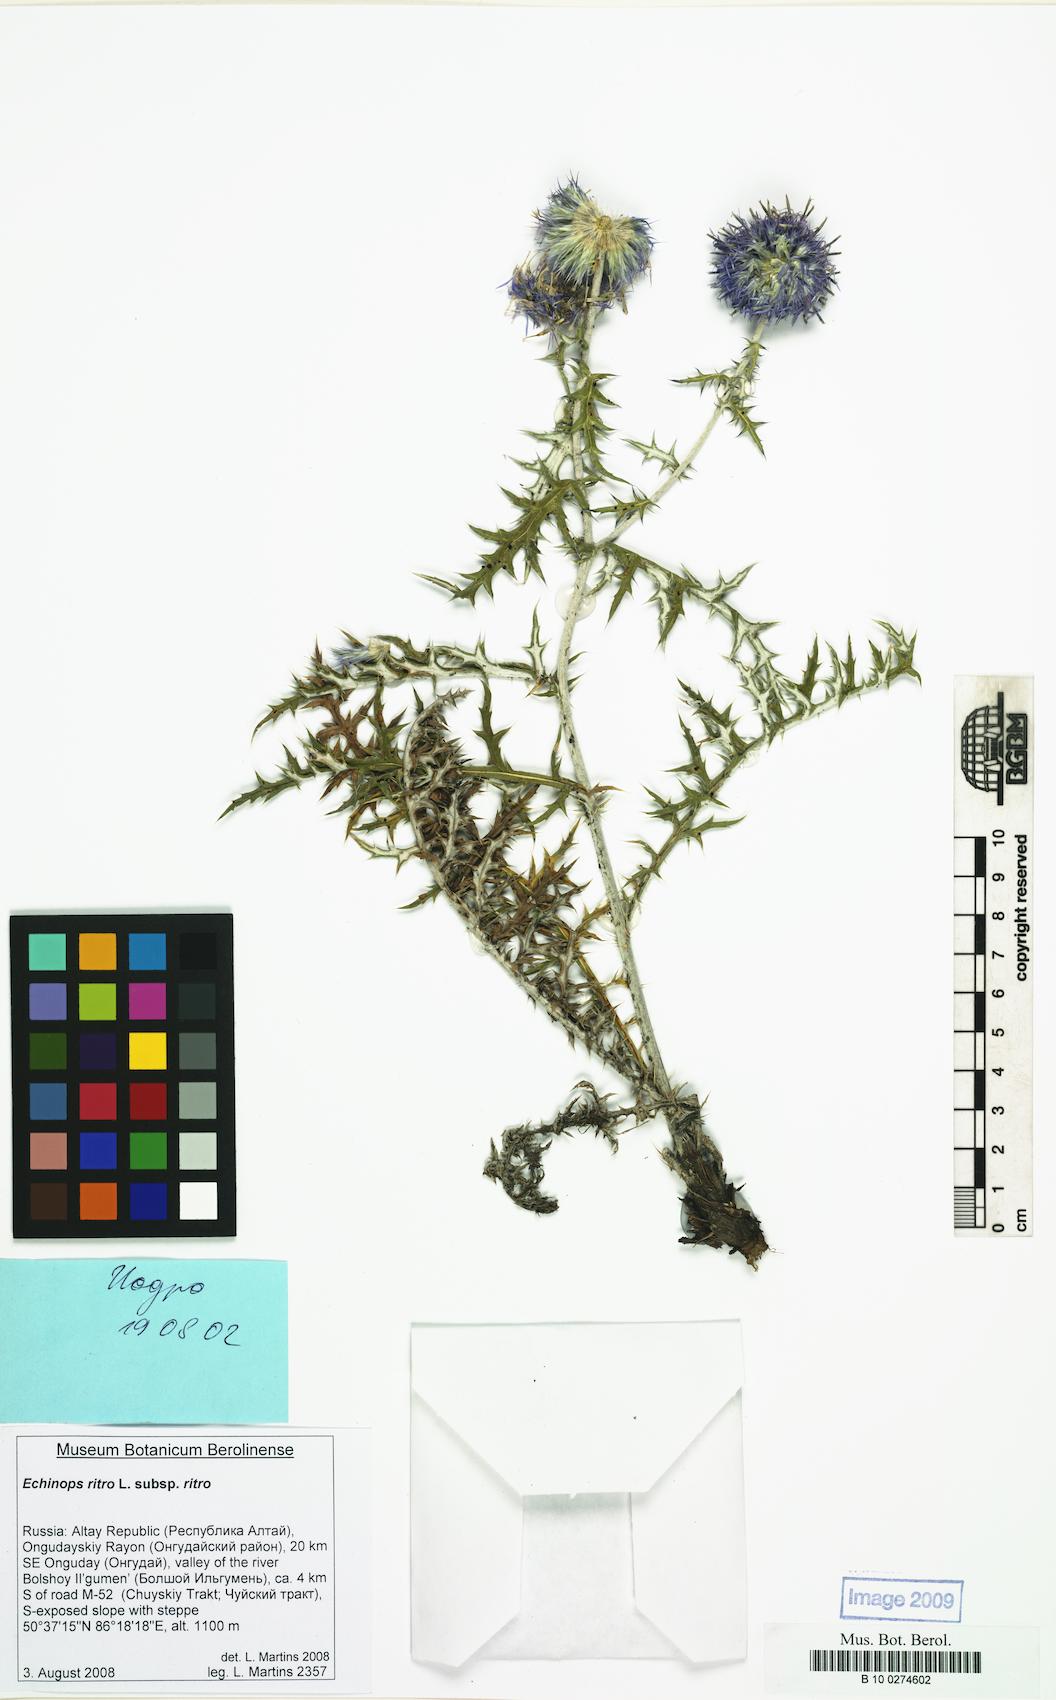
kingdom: Plantae
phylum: Tracheophyta
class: Magnoliopsida
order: Asterales
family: Asteraceae
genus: Echinops
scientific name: Echinops ritro
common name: Globe thistle
